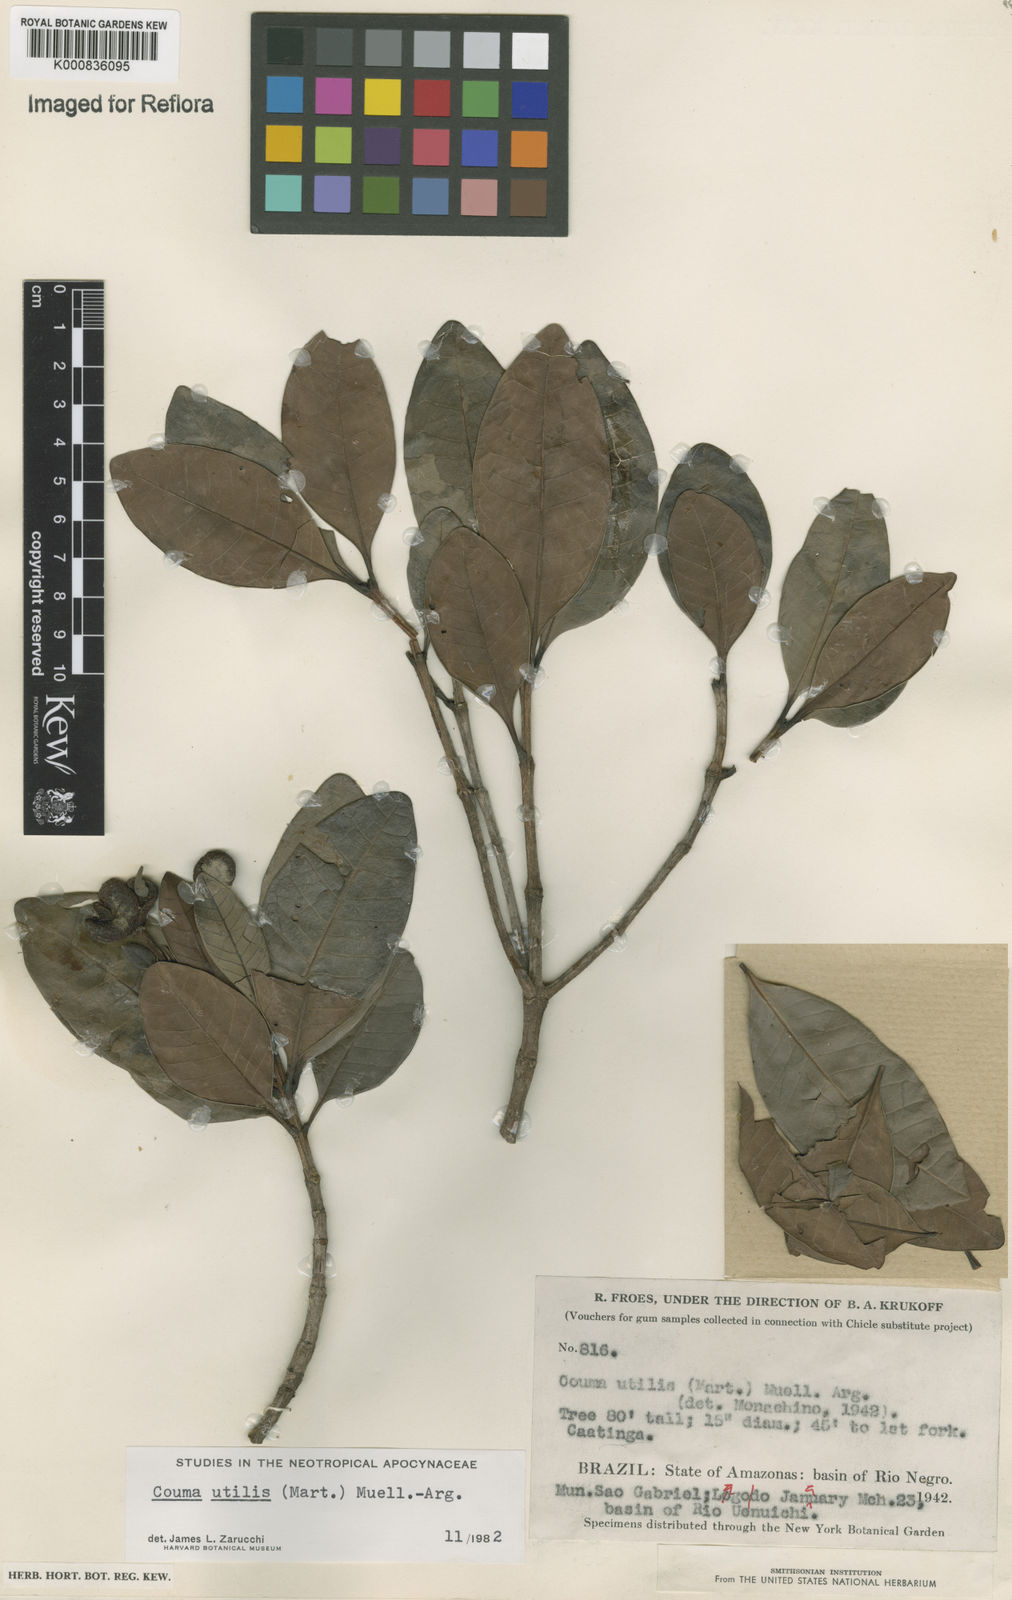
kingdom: Plantae
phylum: Tracheophyta
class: Magnoliopsida
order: Gentianales
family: Apocynaceae
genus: Couma
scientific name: Couma
